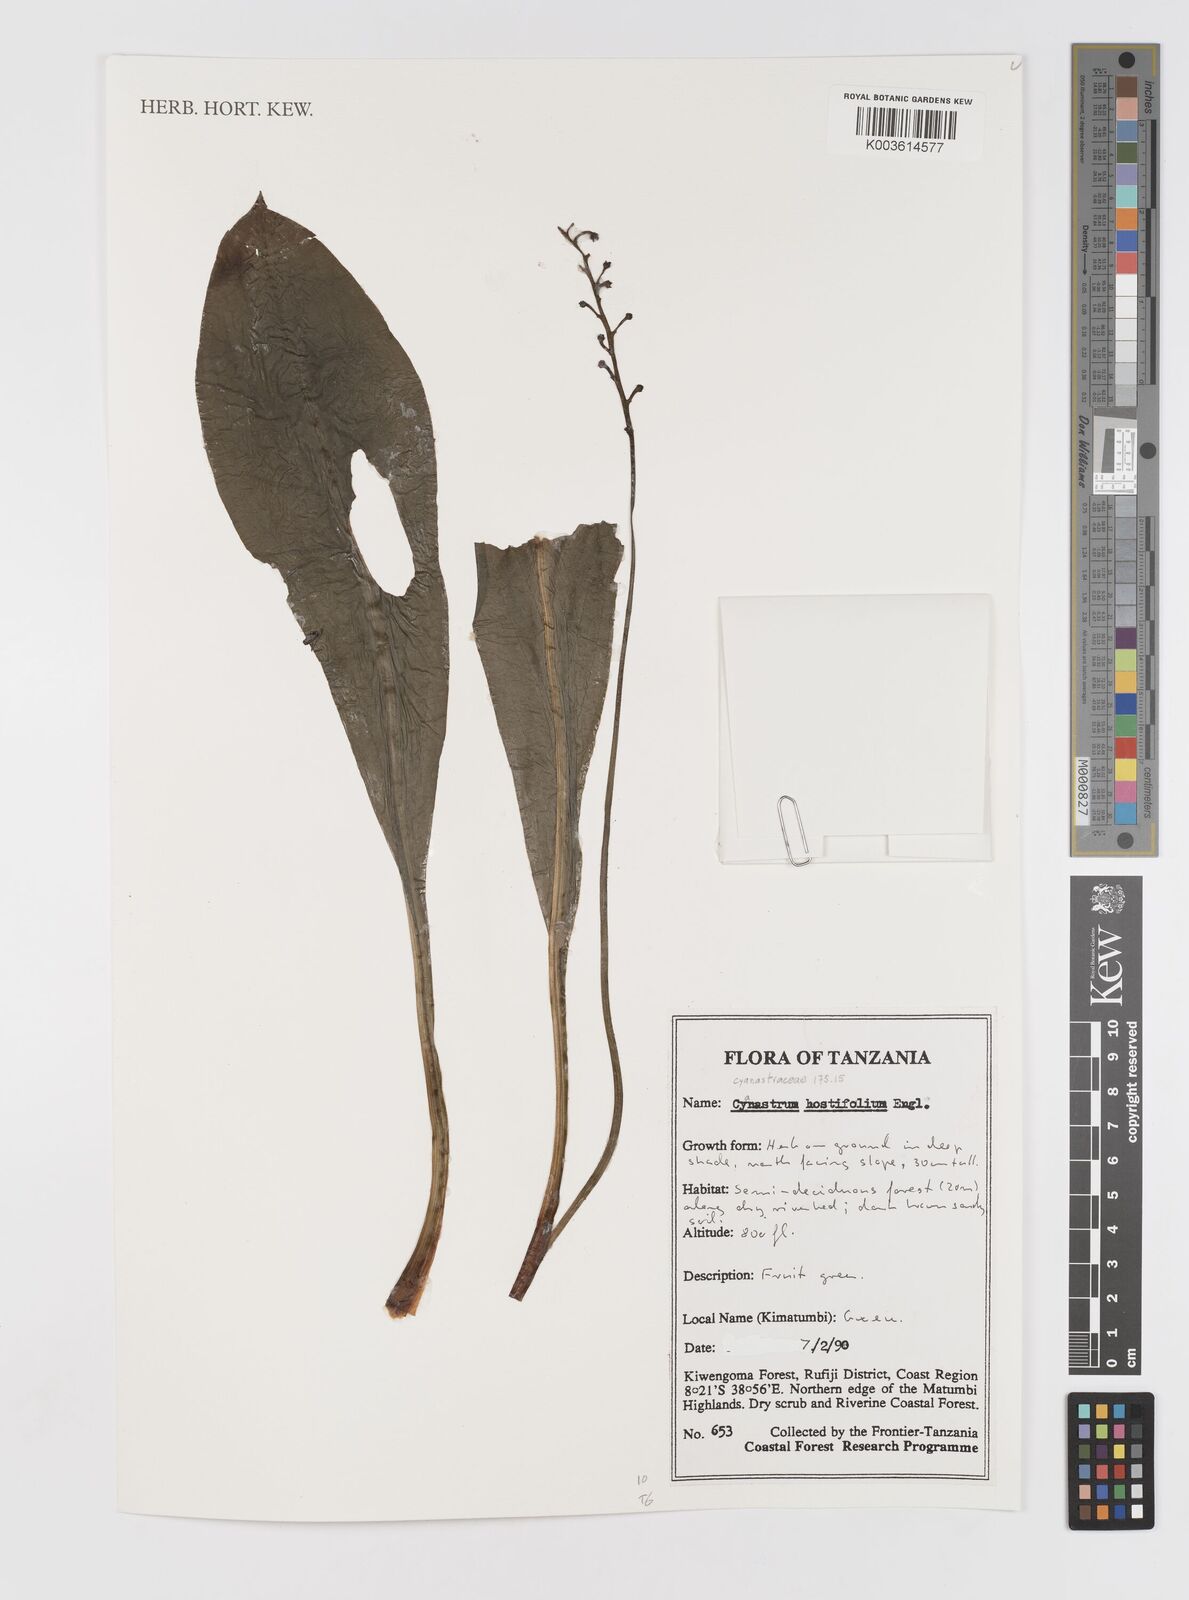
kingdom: Plantae
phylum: Tracheophyta
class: Liliopsida
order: Asparagales
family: Tecophilaeaceae
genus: Kabuyea
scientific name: Kabuyea hostifolia
